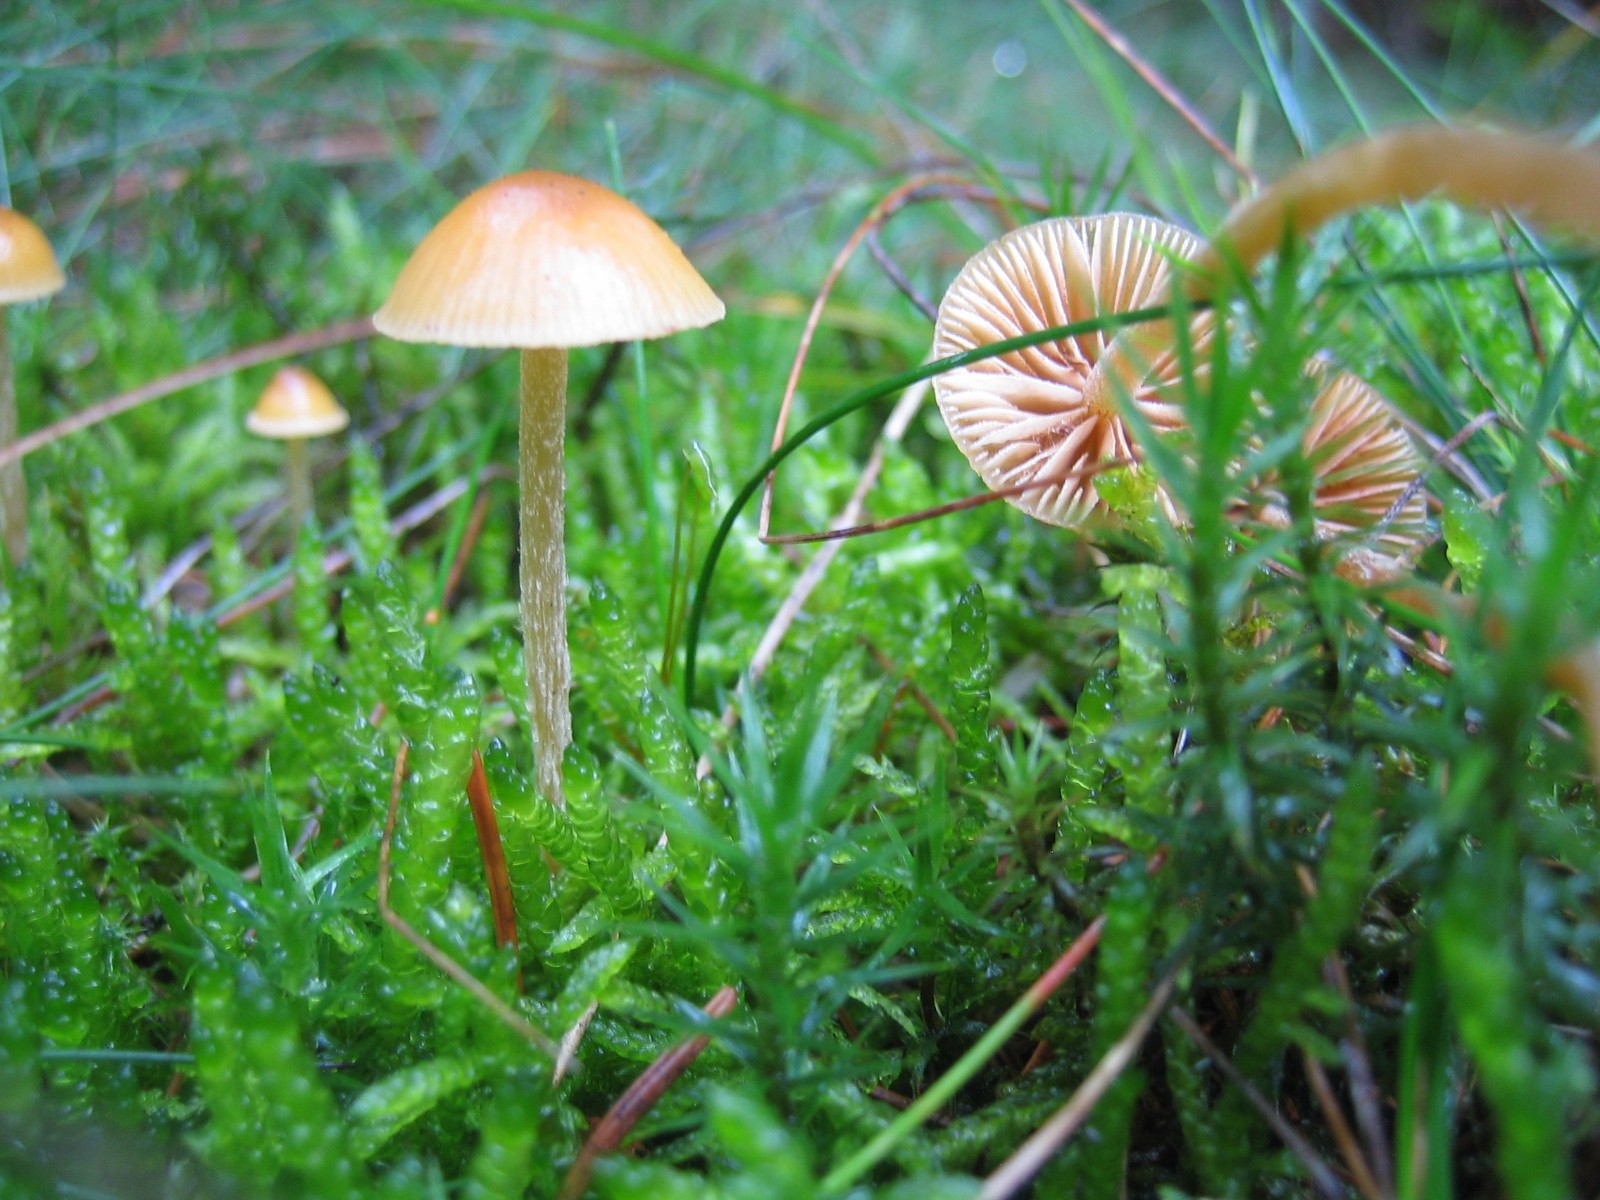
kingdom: Fungi
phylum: Basidiomycota
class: Agaricomycetes
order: Agaricales
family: Hymenogastraceae
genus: Galerina
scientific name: Galerina
